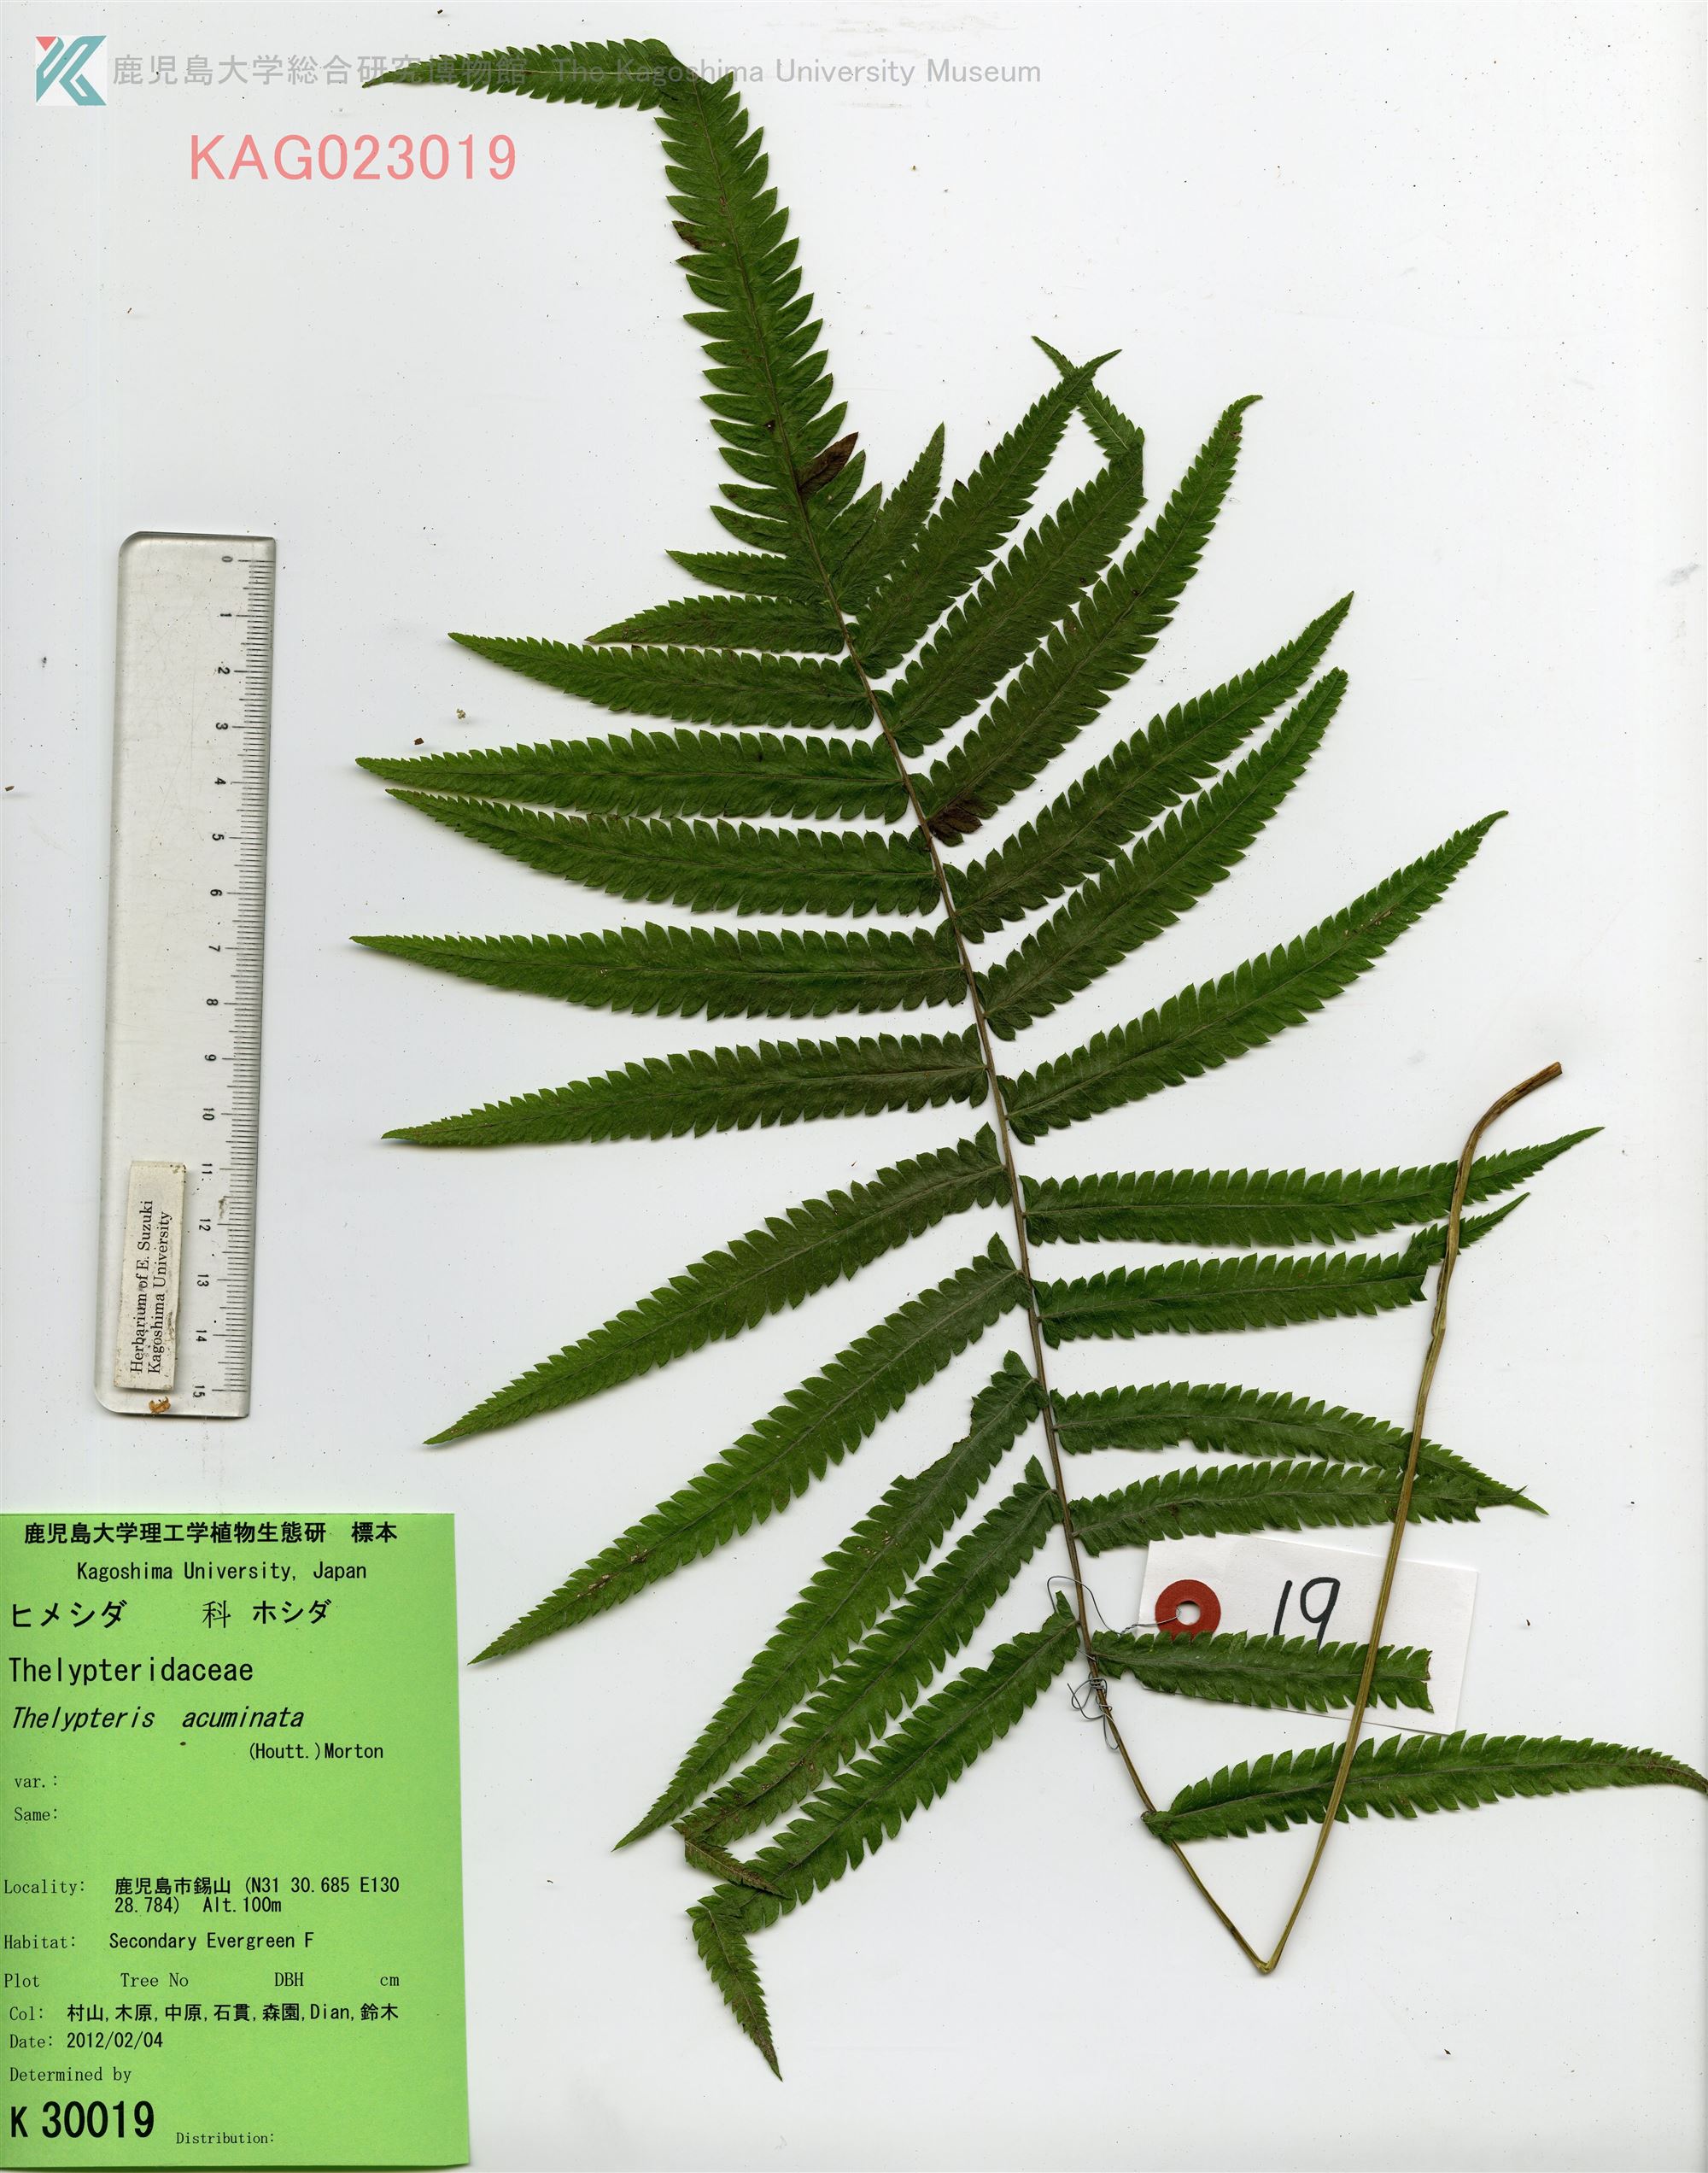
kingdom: Plantae
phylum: Tracheophyta
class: Polypodiopsida
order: Polypodiales
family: Thelypteridaceae
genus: Christella
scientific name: Christella acuminata
